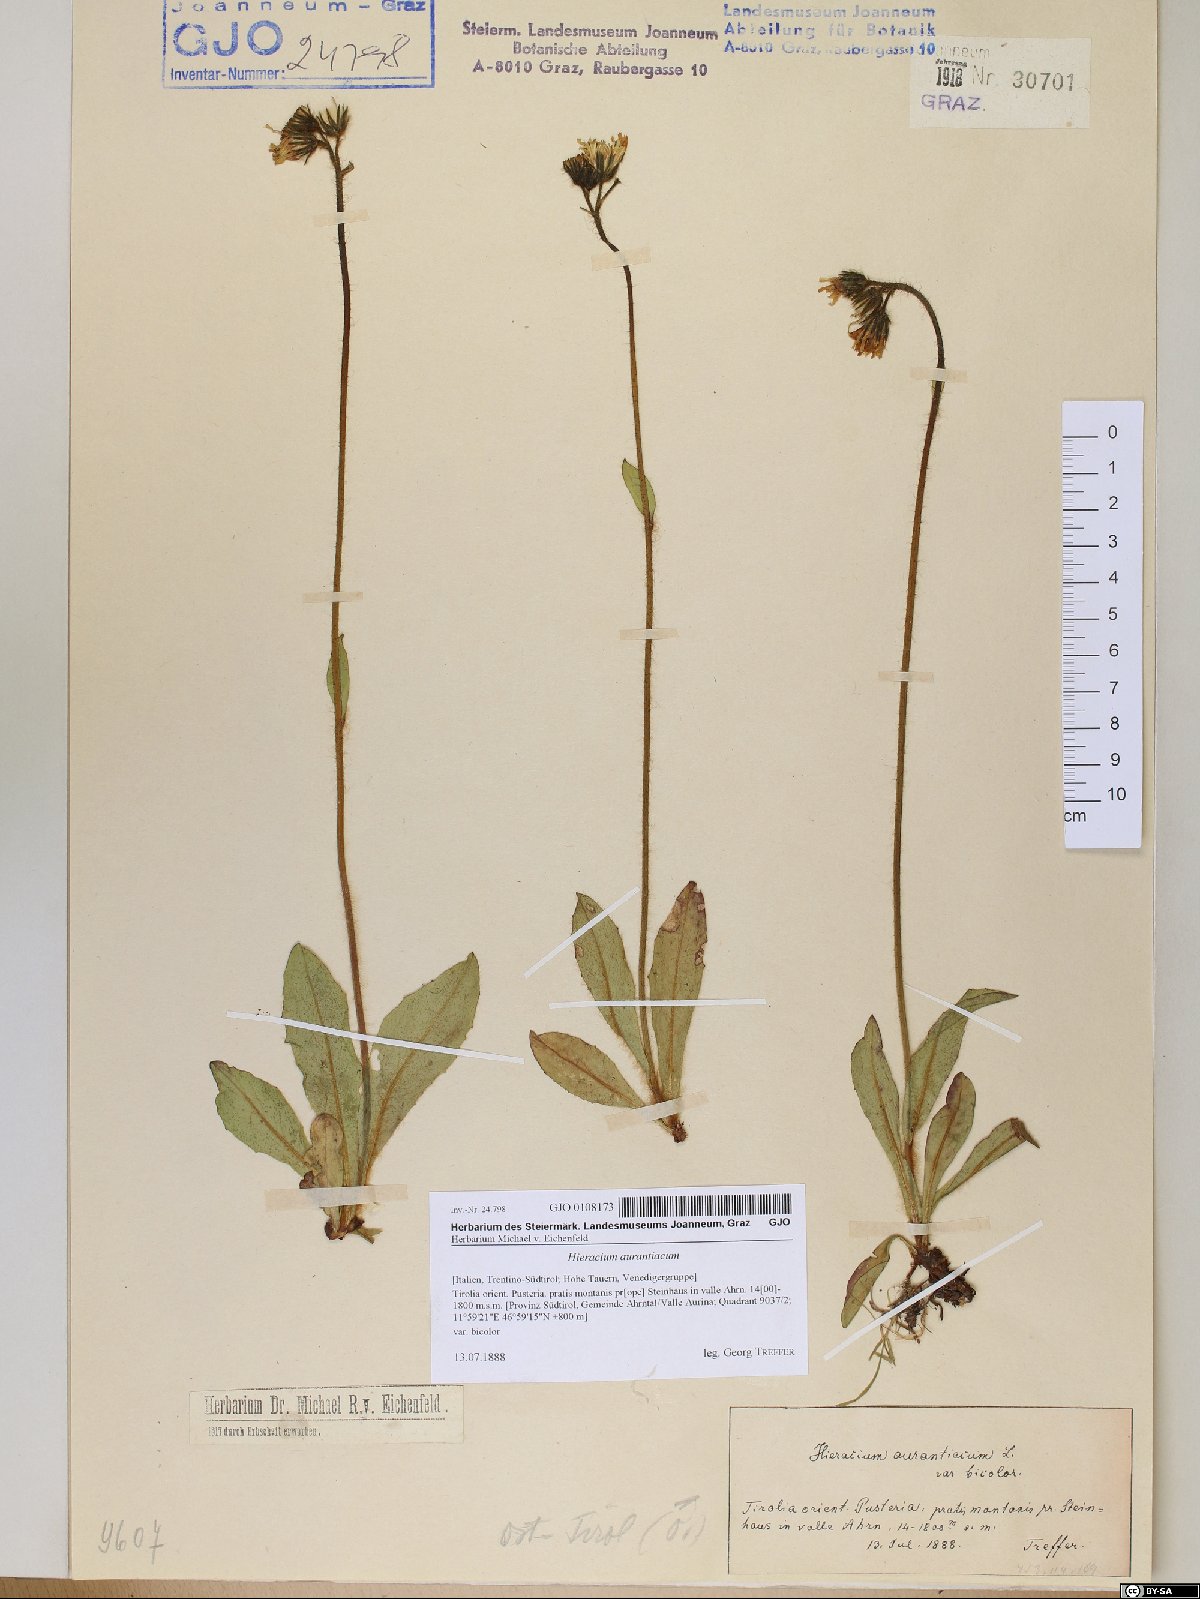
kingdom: Plantae
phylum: Tracheophyta
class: Magnoliopsida
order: Asterales
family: Asteraceae
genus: Pilosella
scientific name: Pilosella aurantiaca
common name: Fox-and-cubs
